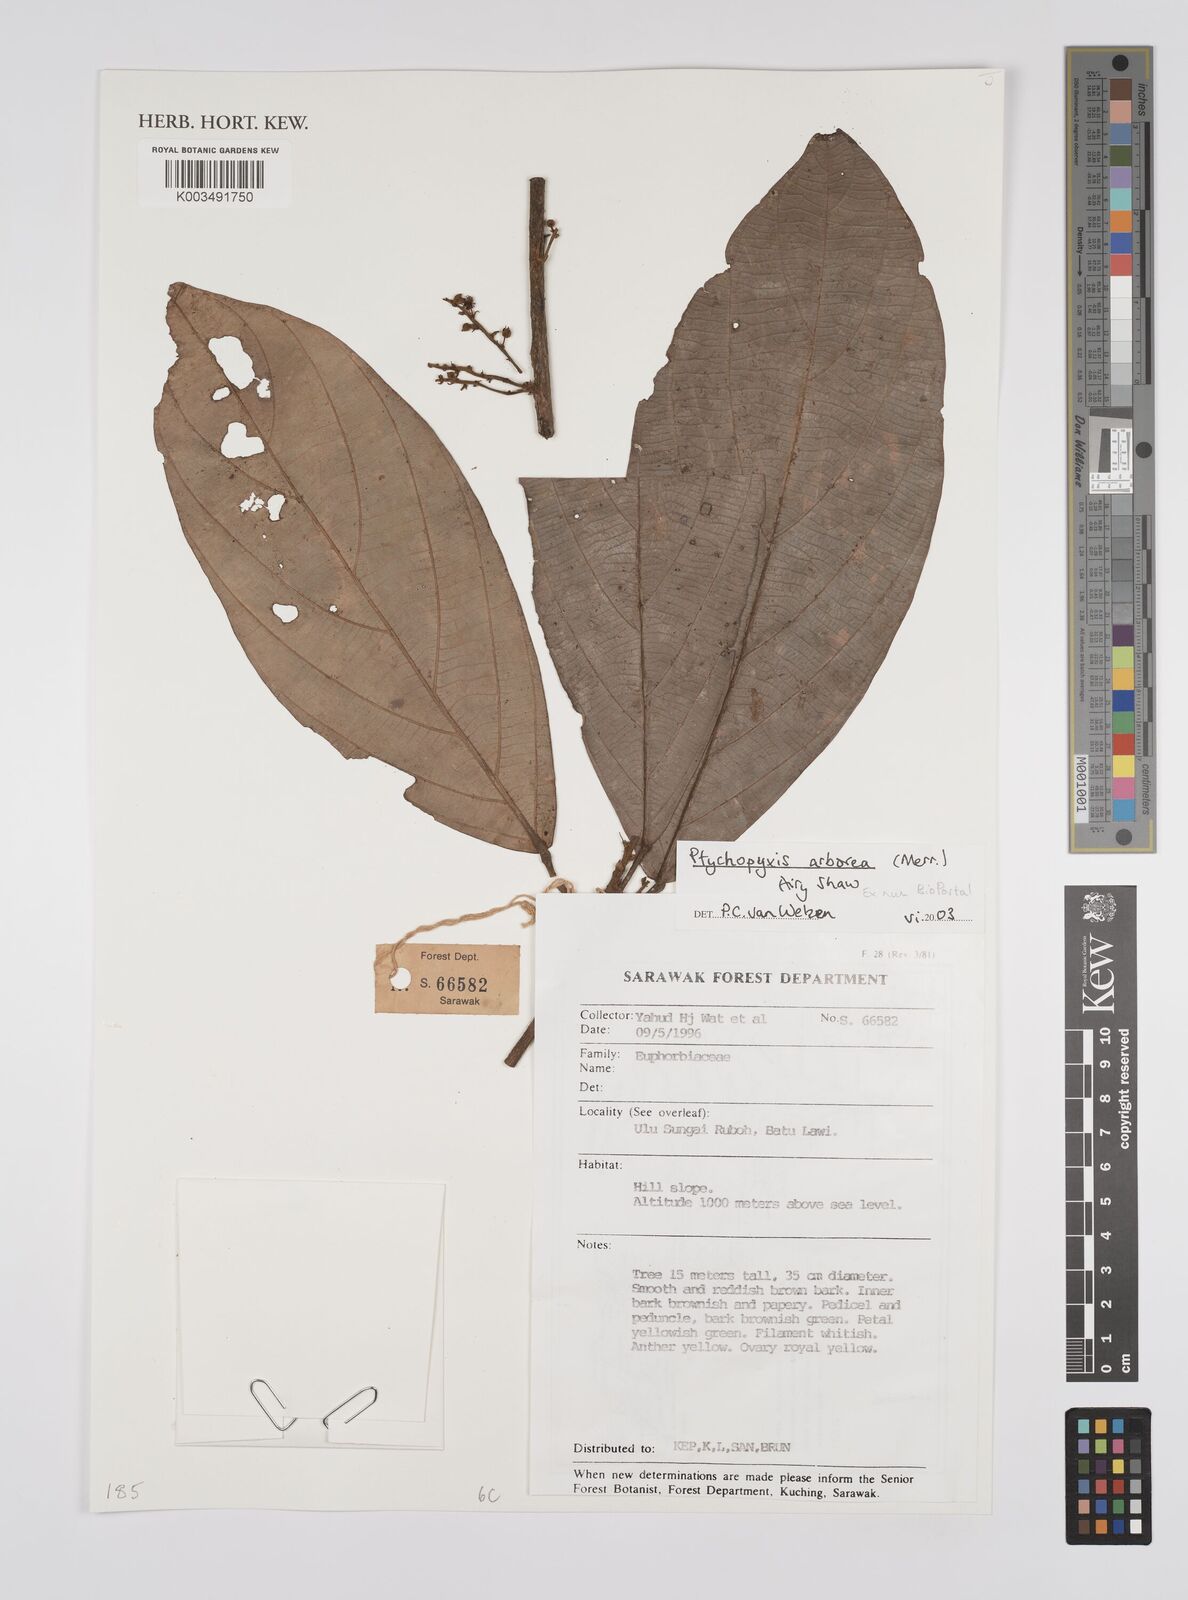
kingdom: Plantae
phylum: Tracheophyta
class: Magnoliopsida
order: Malpighiales
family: Euphorbiaceae
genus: Ptychopyxis
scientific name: Ptychopyxis arborea
